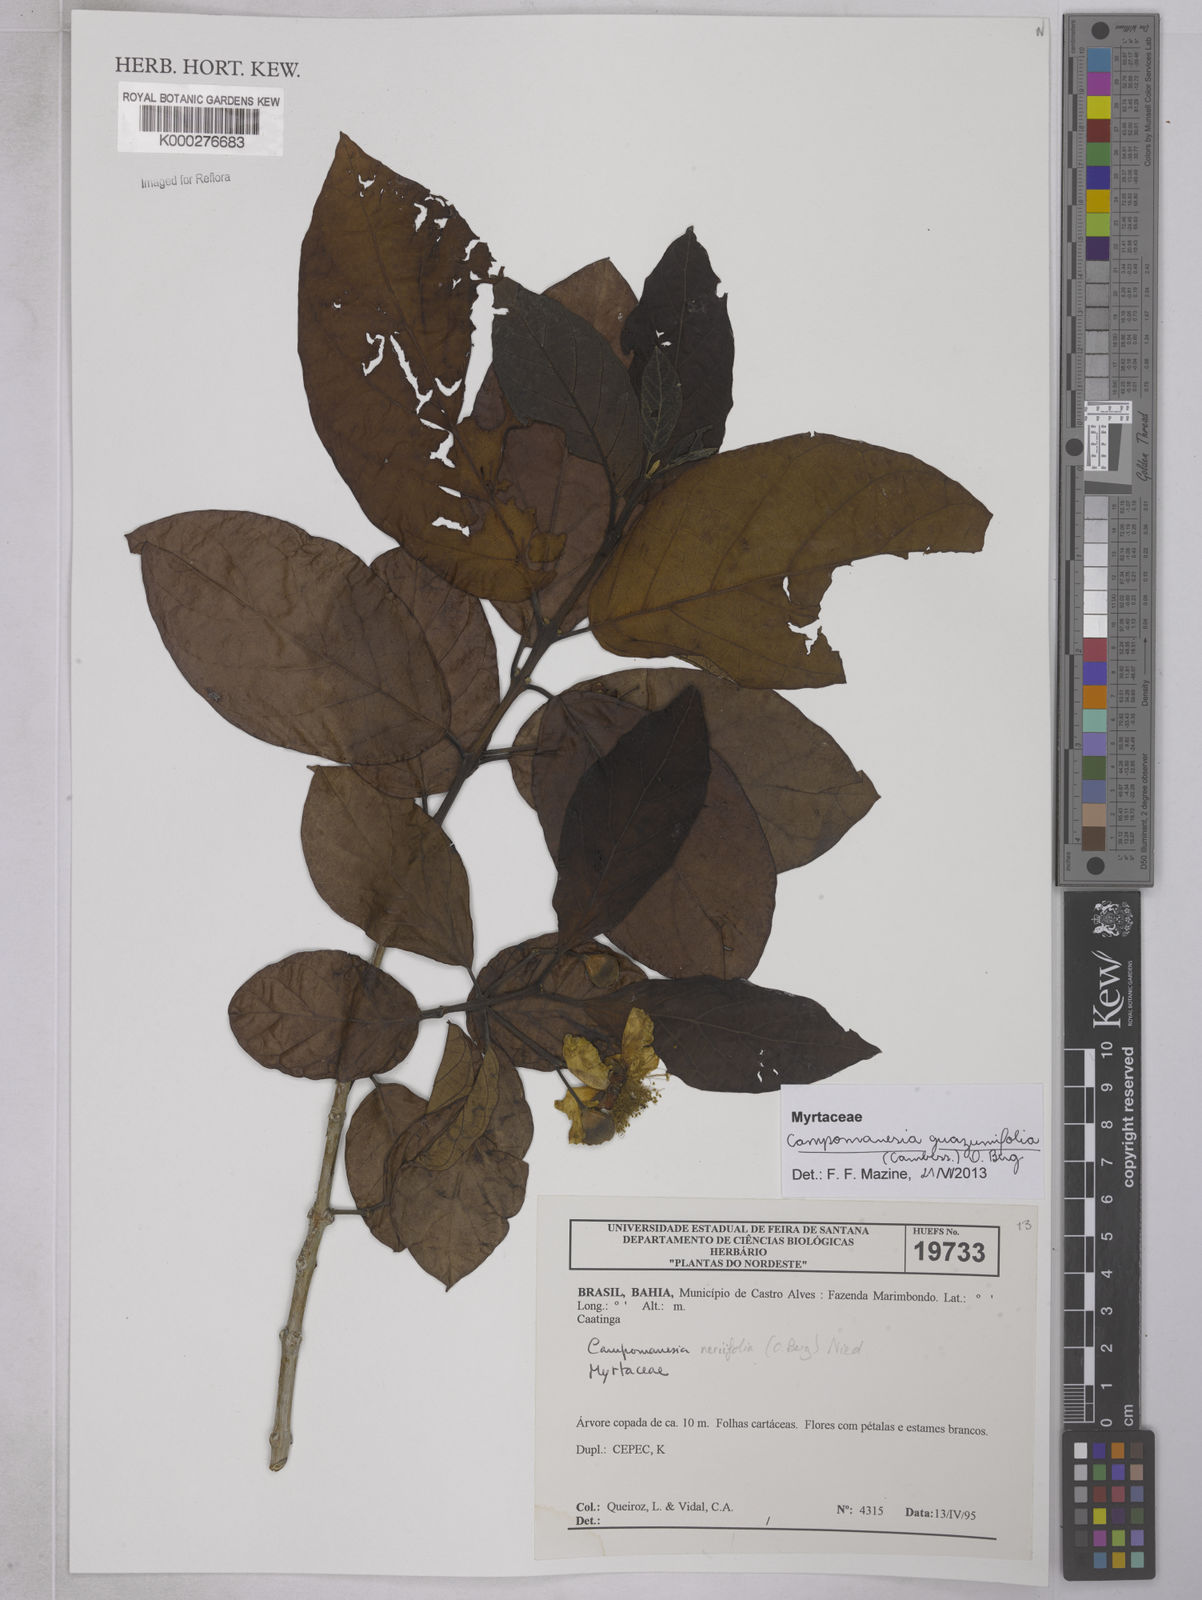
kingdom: Plantae
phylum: Tracheophyta
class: Magnoliopsida
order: Myrtales
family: Myrtaceae
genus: Campomanesia
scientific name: Campomanesia
